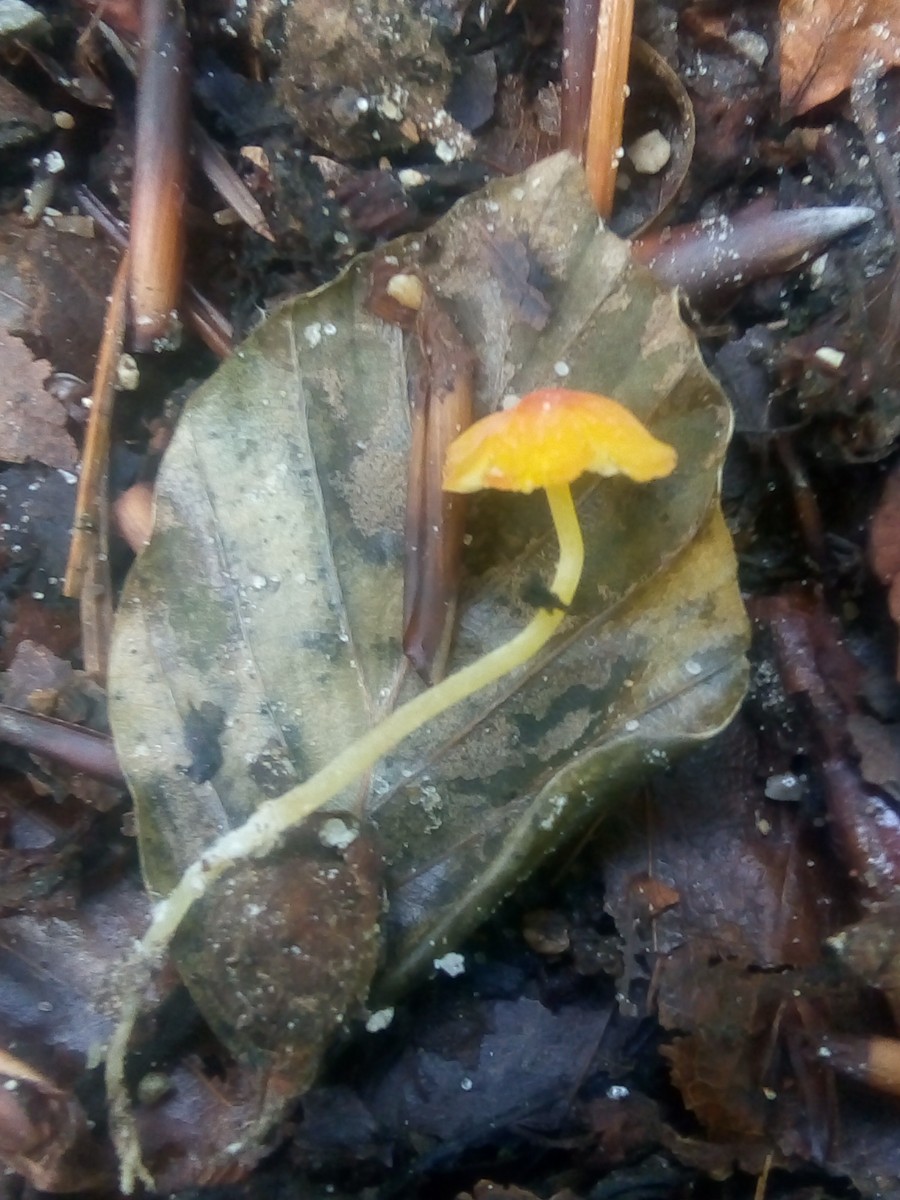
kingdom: Fungi
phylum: Basidiomycota
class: Agaricomycetes
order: Agaricales
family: Mycenaceae
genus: Mycena
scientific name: Mycena acicula
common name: orange huesvamp
